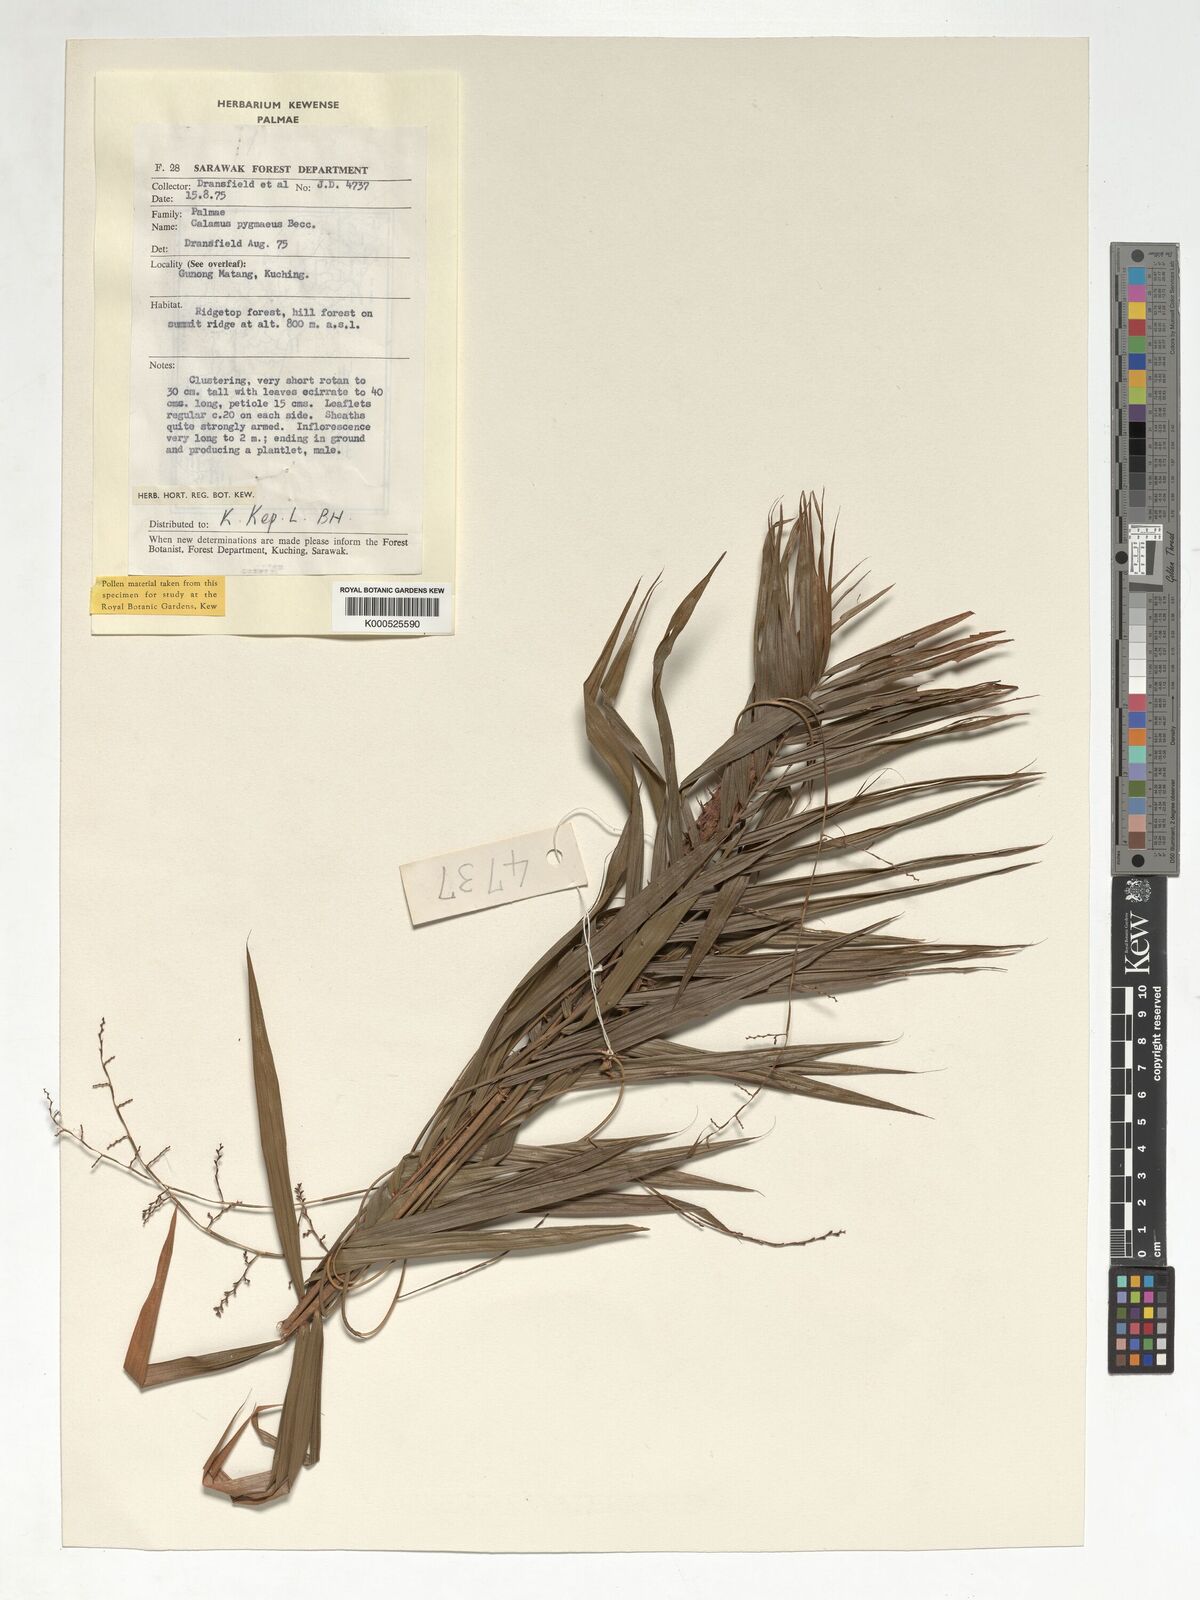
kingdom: Plantae
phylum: Tracheophyta
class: Liliopsida
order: Arecales
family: Arecaceae
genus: Calamus
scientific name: Calamus pygmaeus
